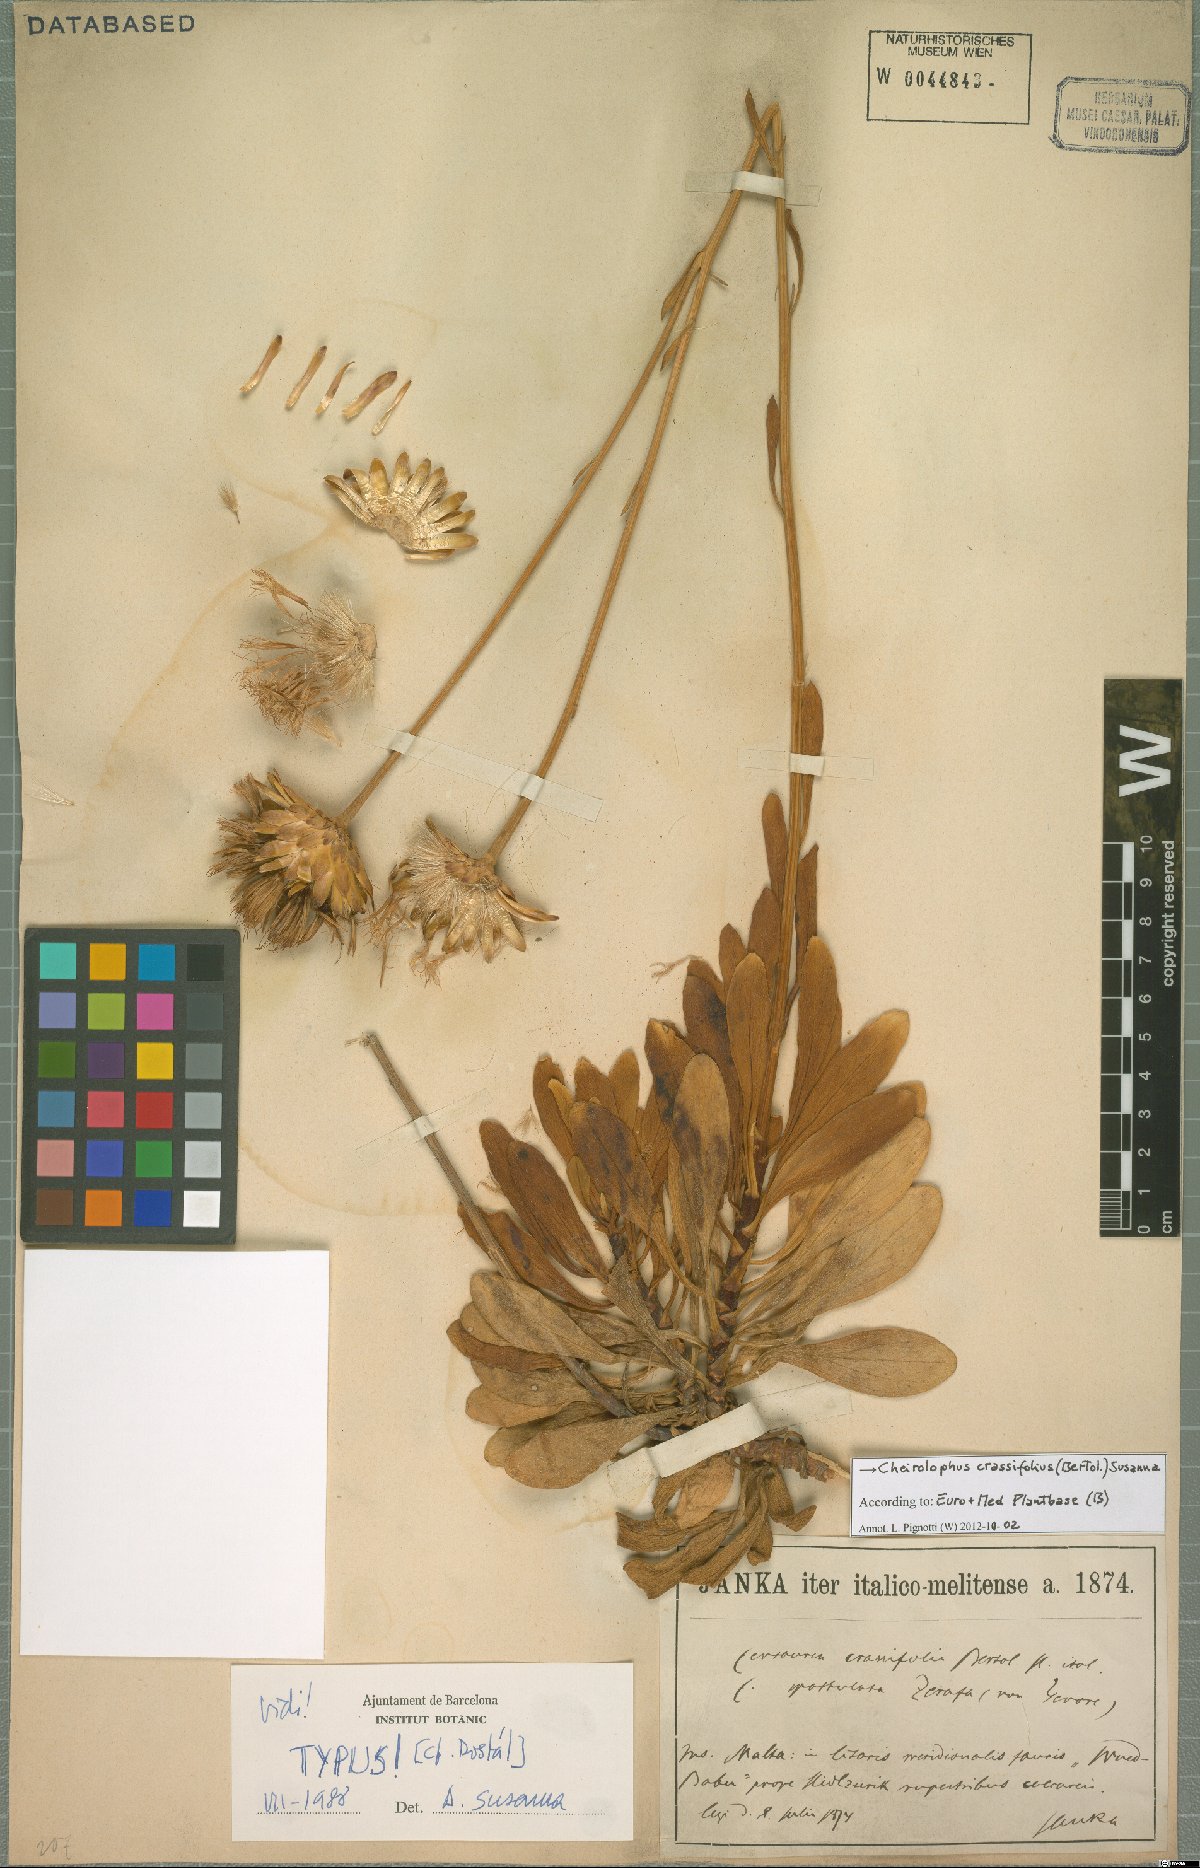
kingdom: Plantae
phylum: Tracheophyta
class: Magnoliopsida
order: Asterales
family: Asteraceae
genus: Cheirolophus
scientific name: Cheirolophus crassifolius
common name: Maltese centaury
